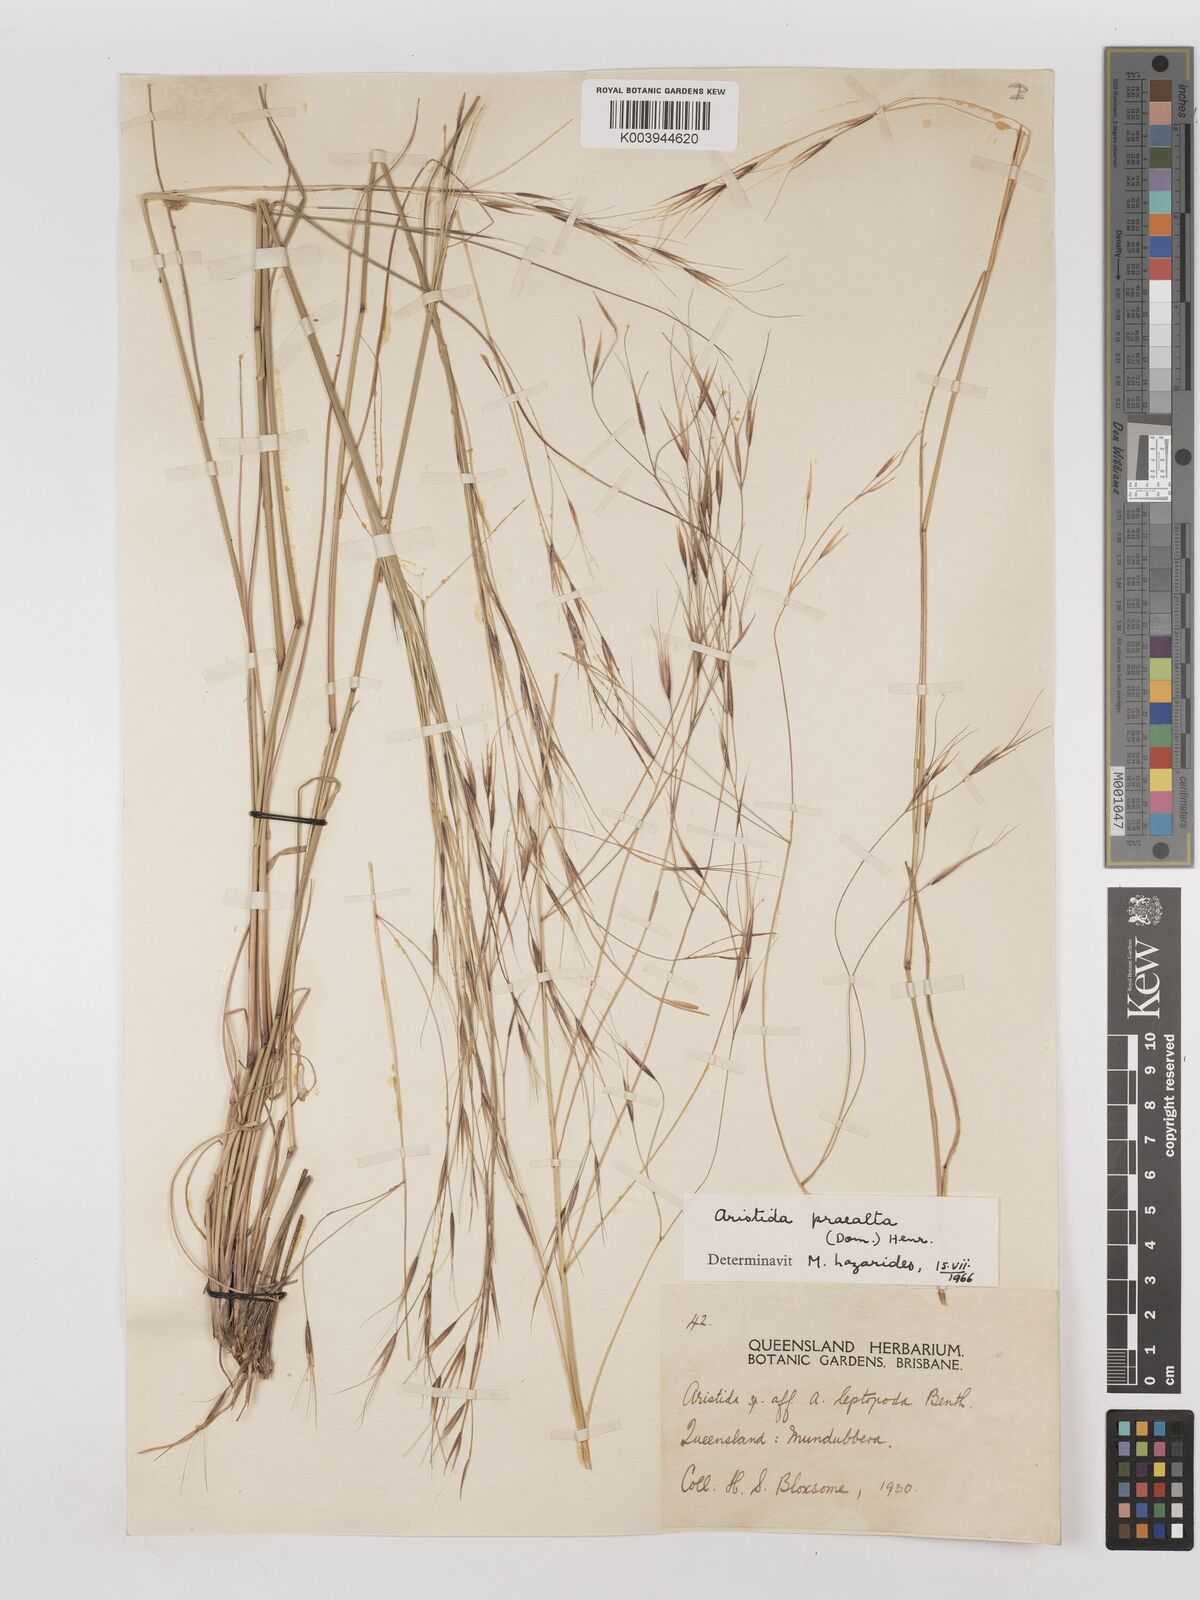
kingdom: Plantae
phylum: Tracheophyta
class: Liliopsida
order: Poales
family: Poaceae
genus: Aristida
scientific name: Aristida calycina
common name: Dark wire grass
